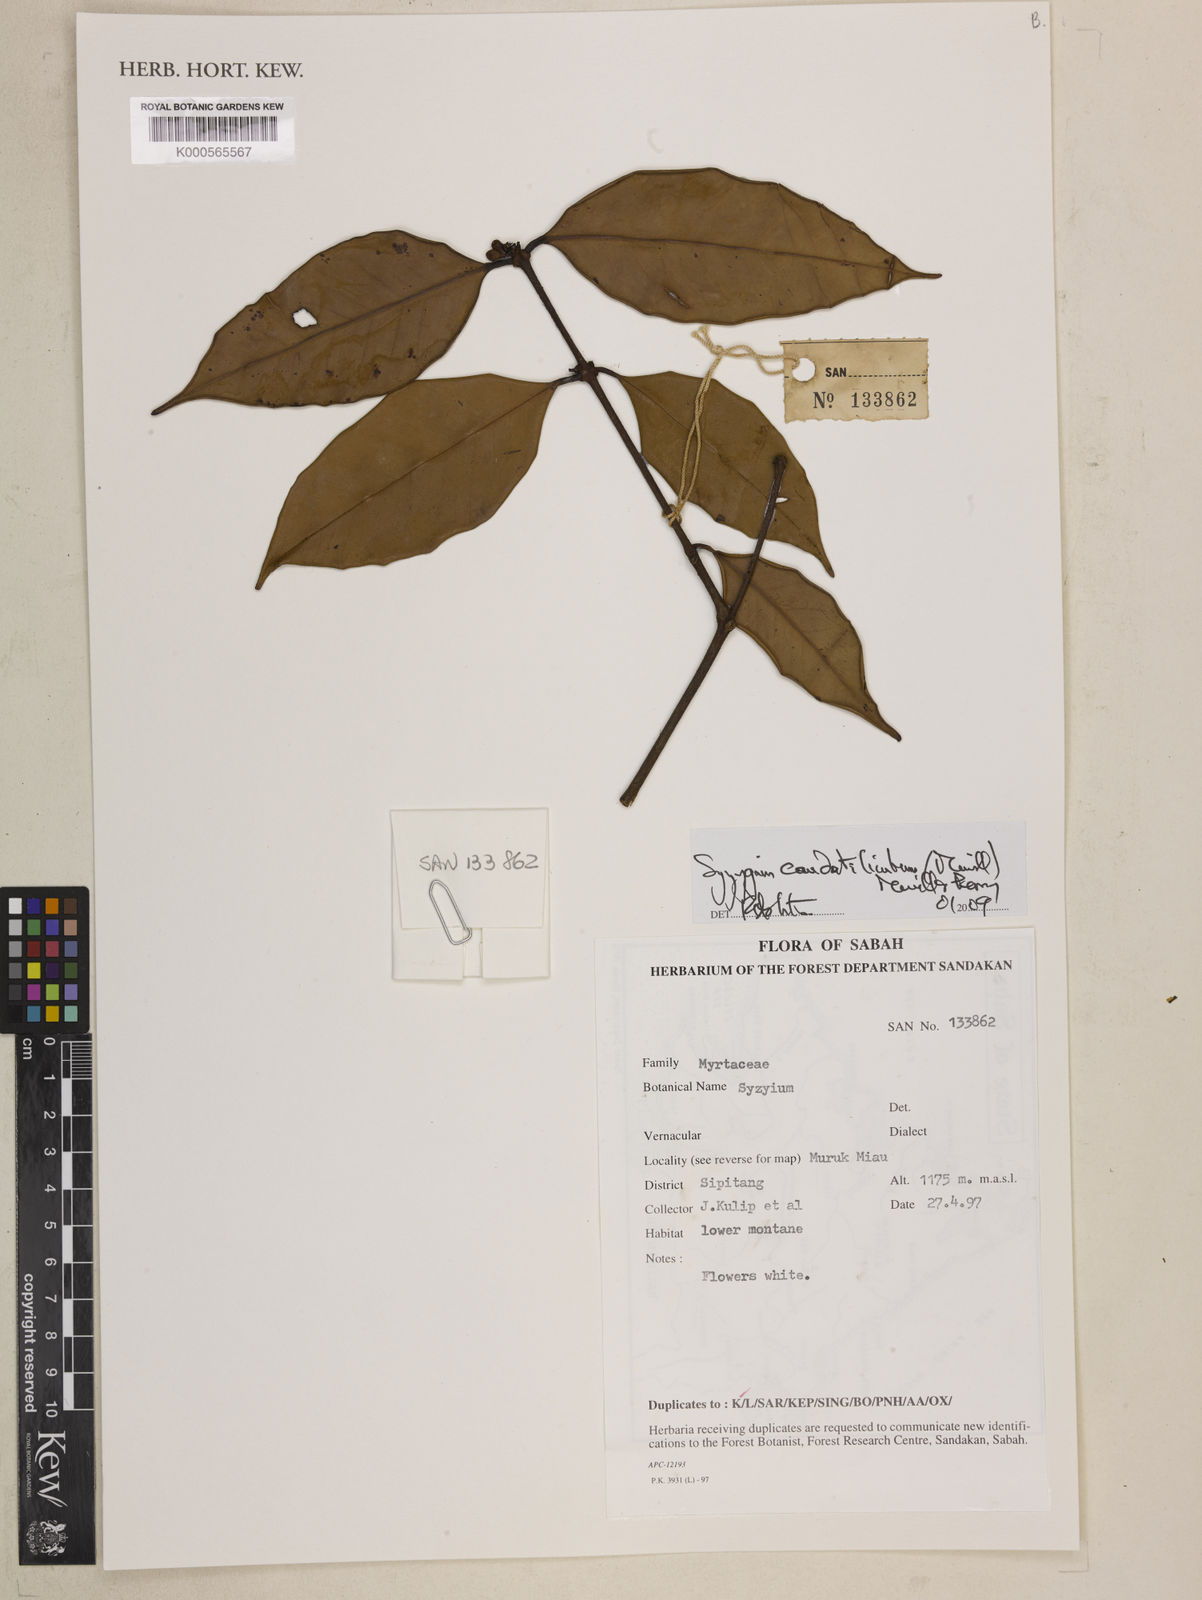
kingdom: Plantae
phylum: Tracheophyta
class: Magnoliopsida
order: Myrtales
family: Myrtaceae
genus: Syzygium
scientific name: Syzygium caudatilimbum
